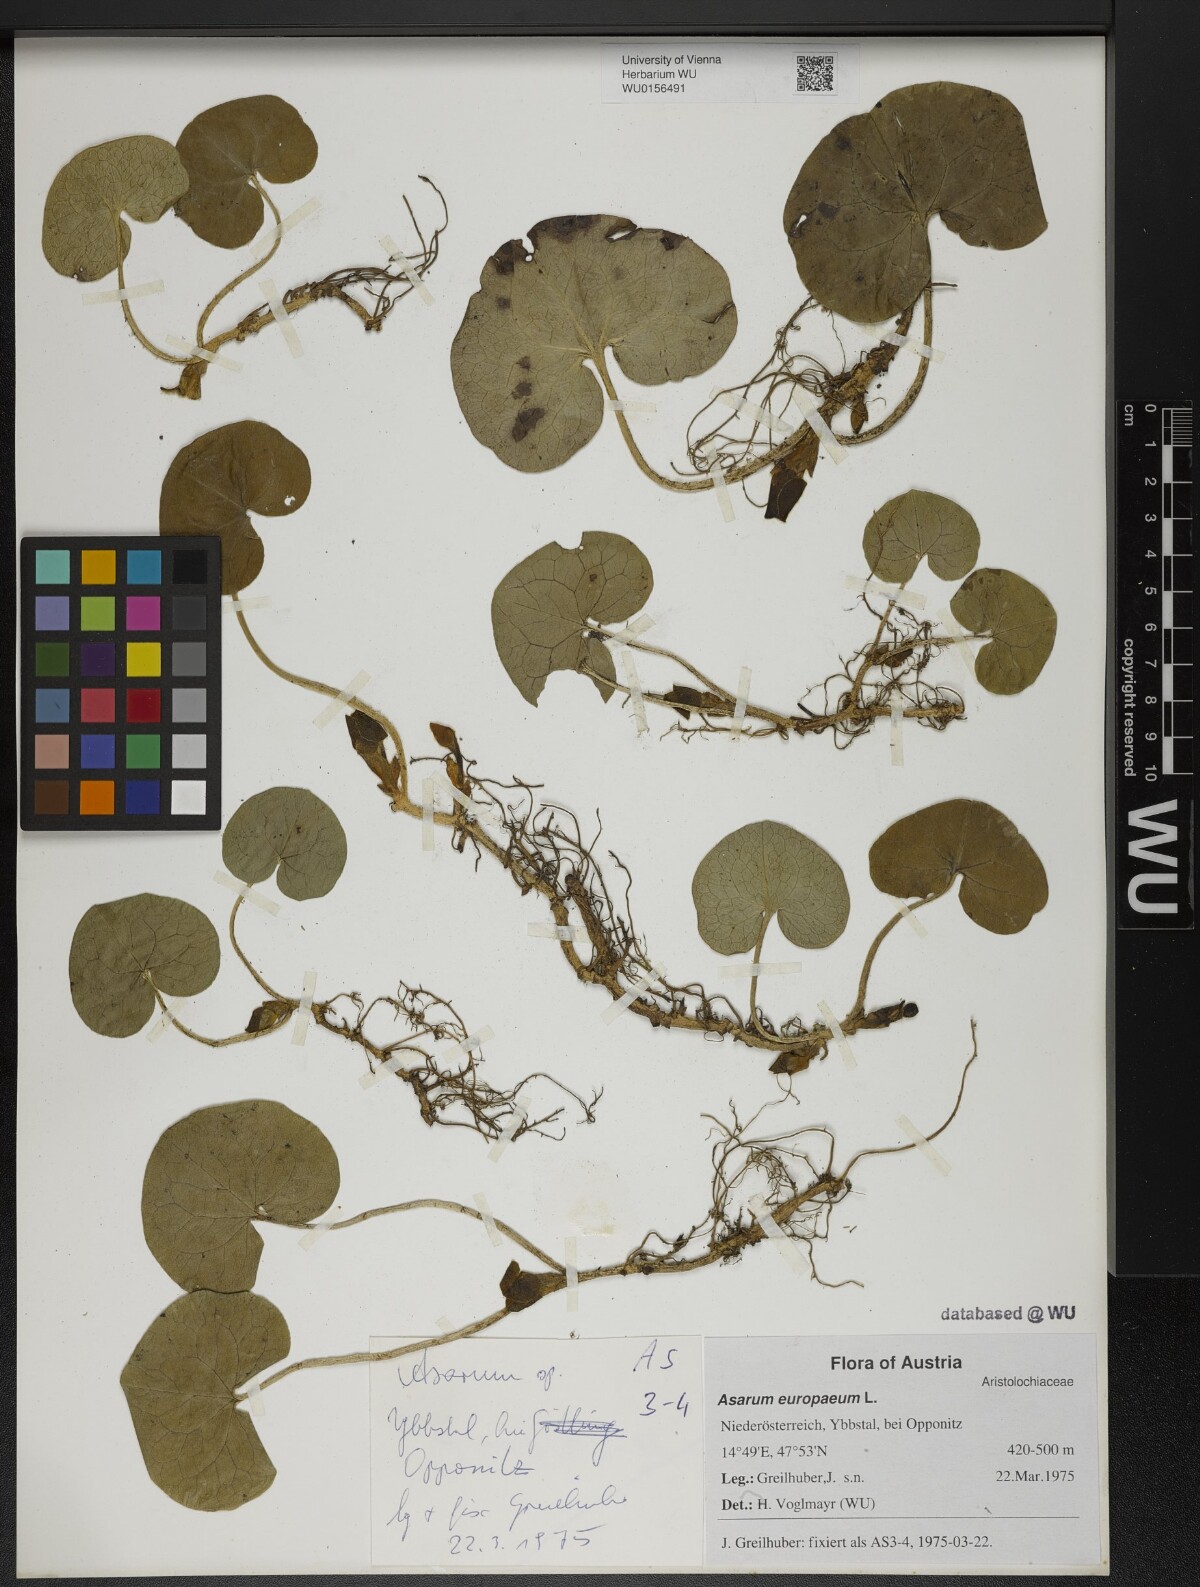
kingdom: Plantae
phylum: Tracheophyta
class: Magnoliopsida
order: Piperales
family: Aristolochiaceae
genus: Asarum
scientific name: Asarum europaeum
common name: Asarabacca
